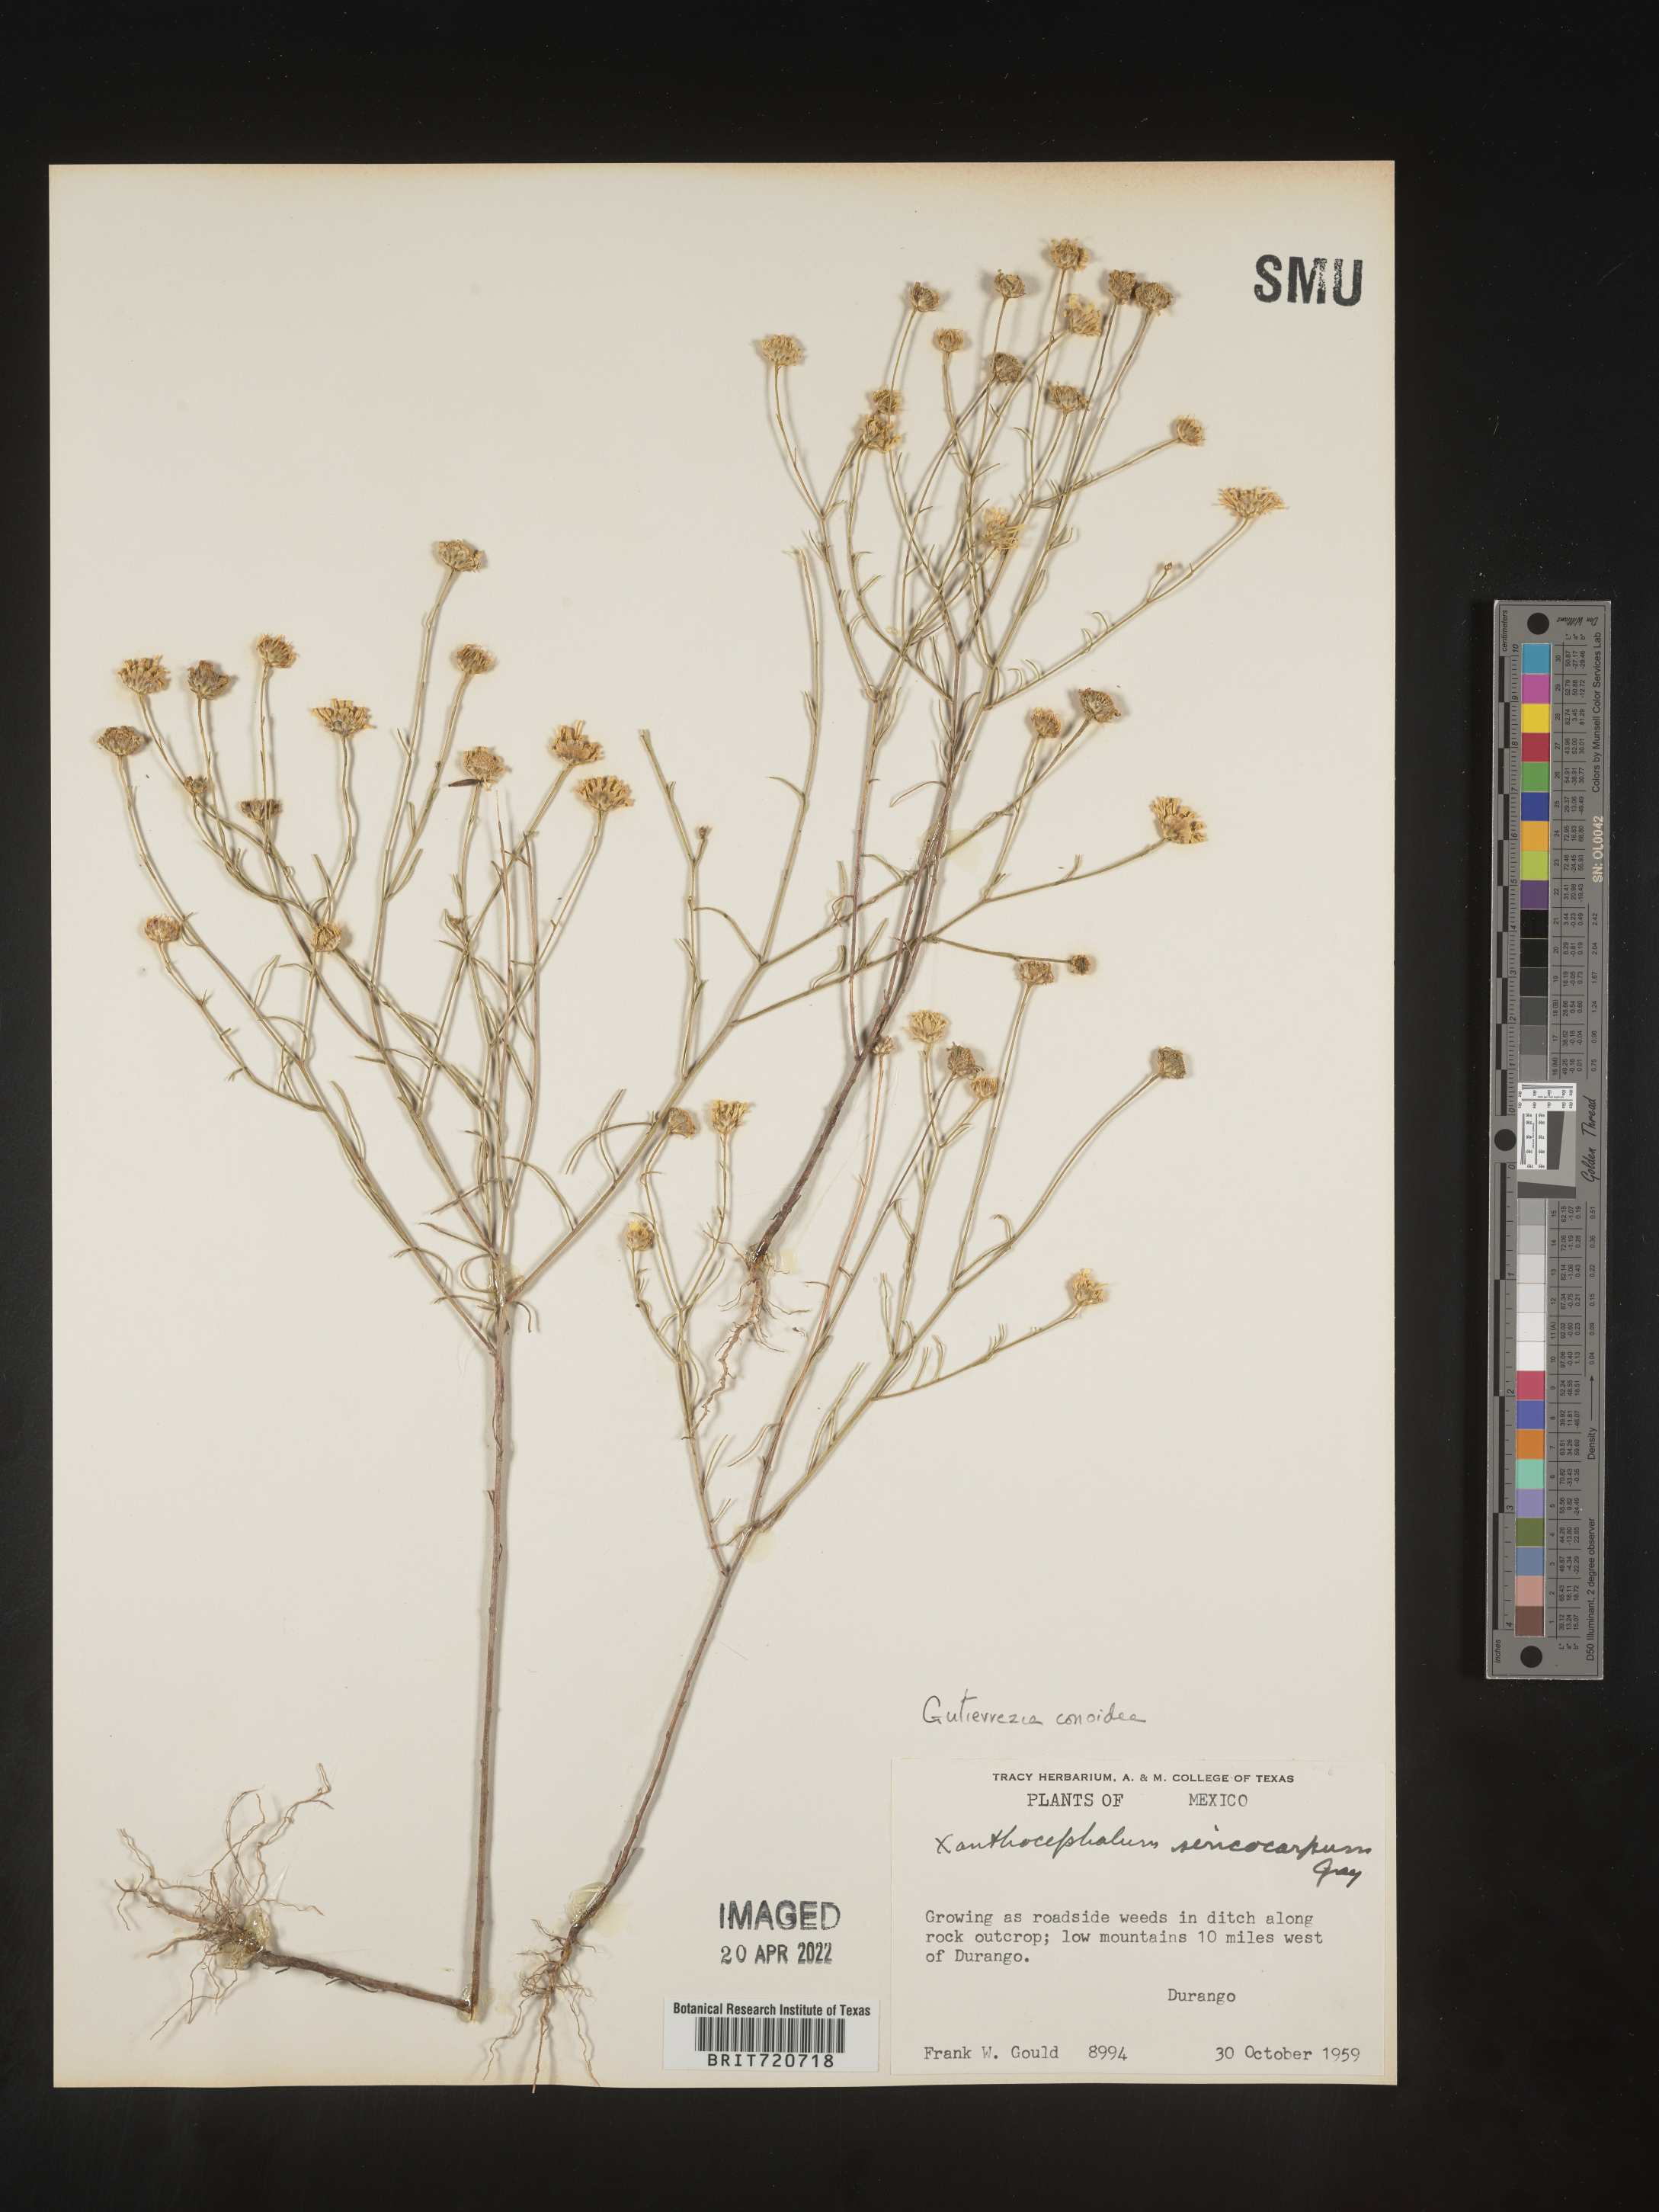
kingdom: Plantae
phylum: Tracheophyta
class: Magnoliopsida
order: Asterales
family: Asteraceae
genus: Gutierrezia
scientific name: Gutierrezia conoidea
